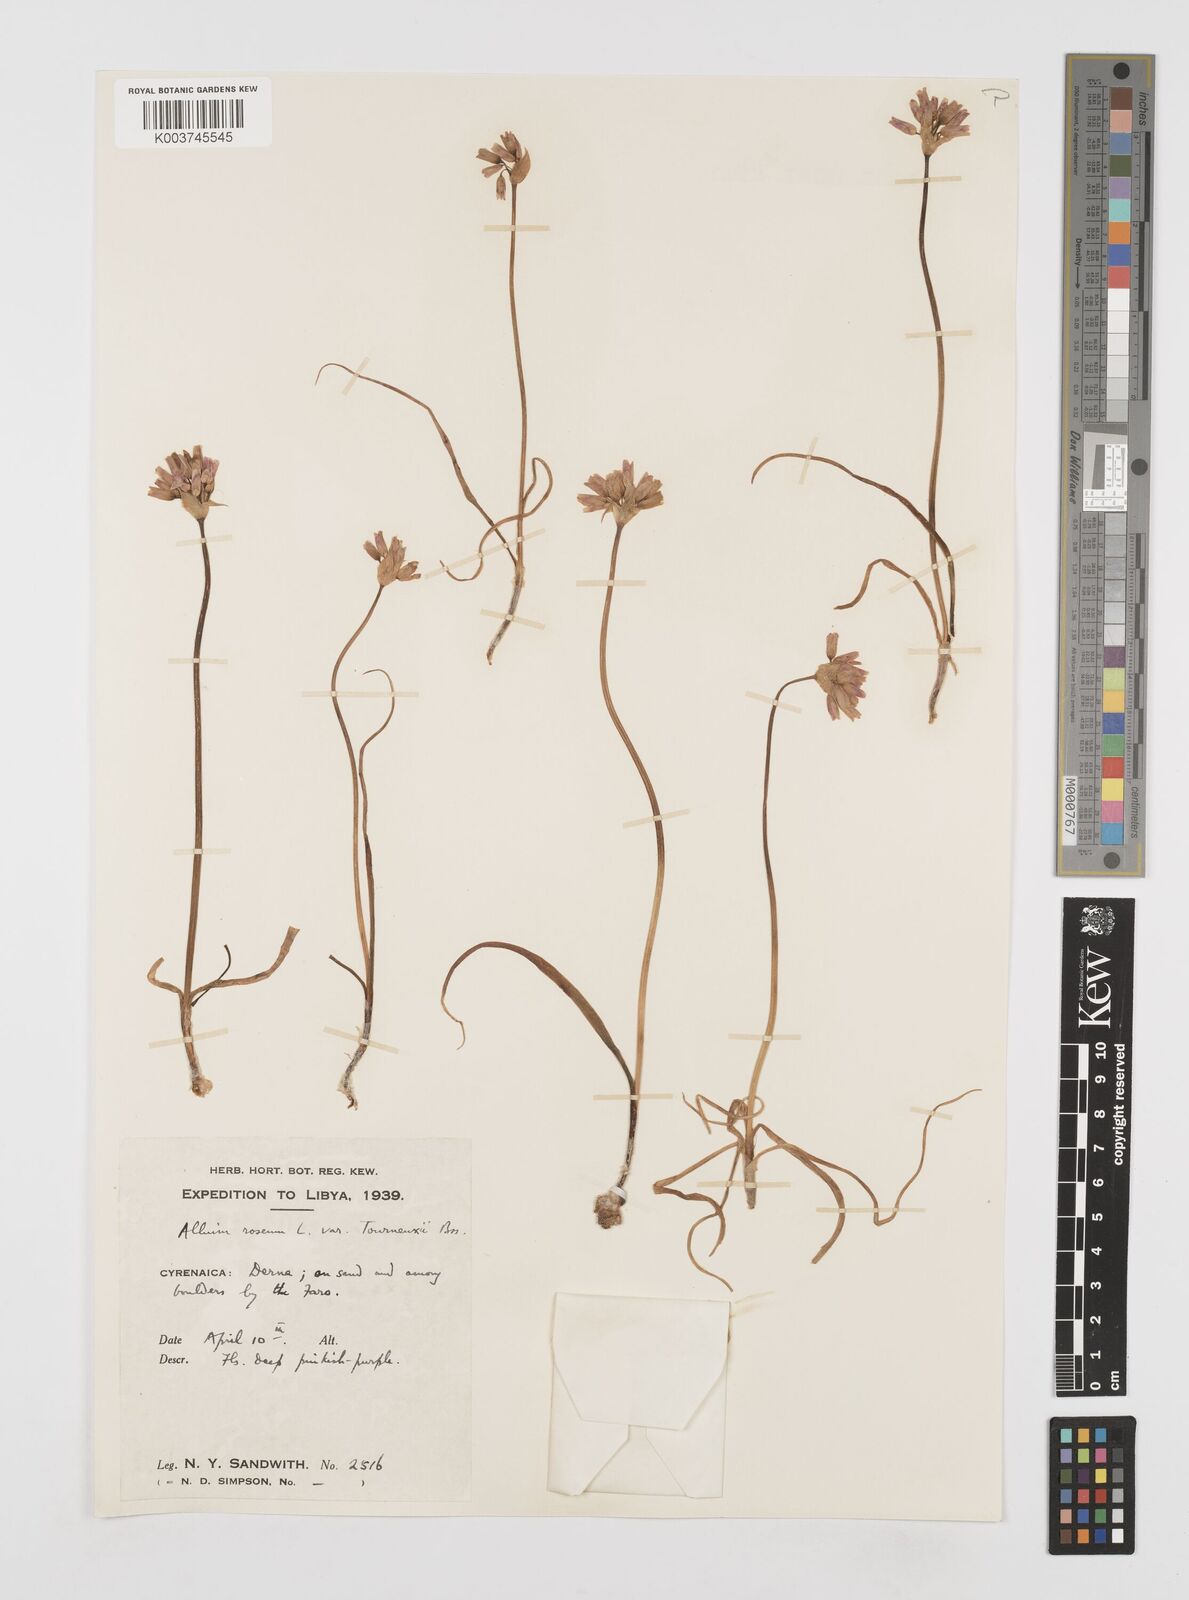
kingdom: Plantae
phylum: Tracheophyta
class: Liliopsida
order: Asparagales
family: Amaryllidaceae
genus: Allium
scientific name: Allium roseum
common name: Rosy garlic
